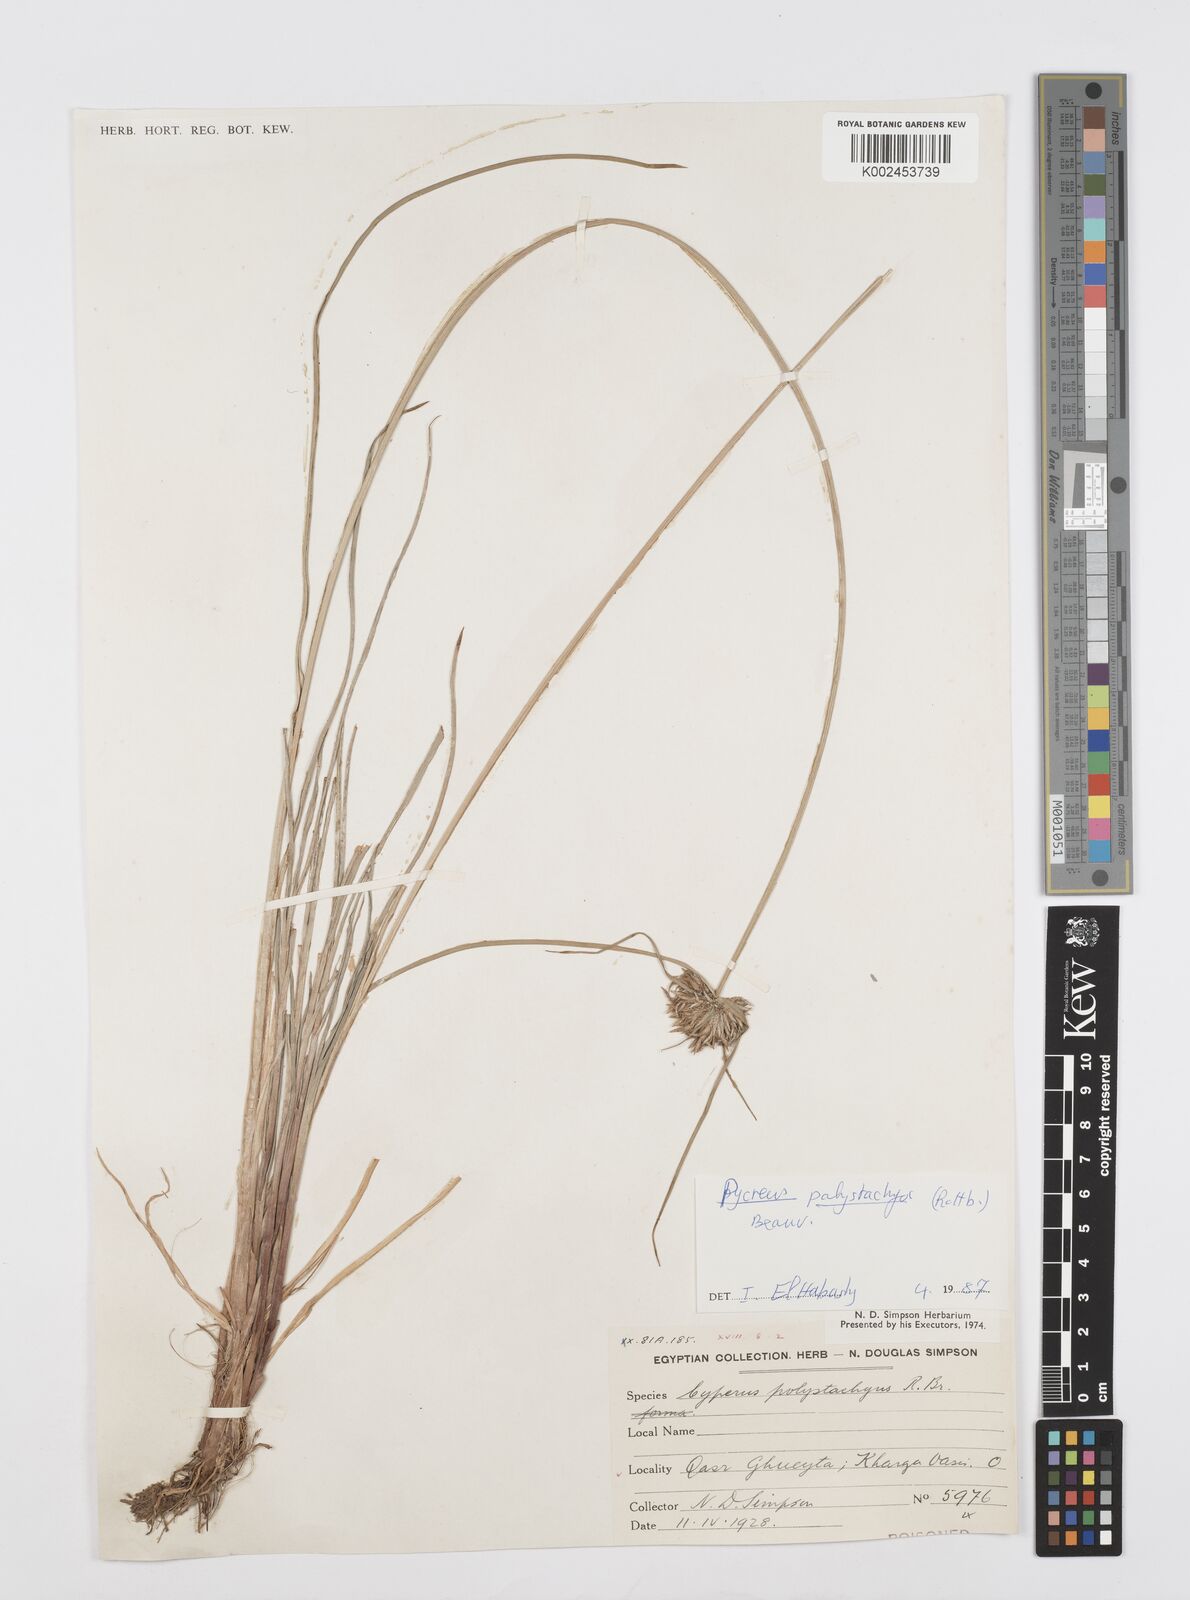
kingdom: Plantae
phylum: Tracheophyta
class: Liliopsida
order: Poales
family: Cyperaceae
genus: Cyperus
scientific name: Cyperus polystachyos
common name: Bunchy flat sedge
